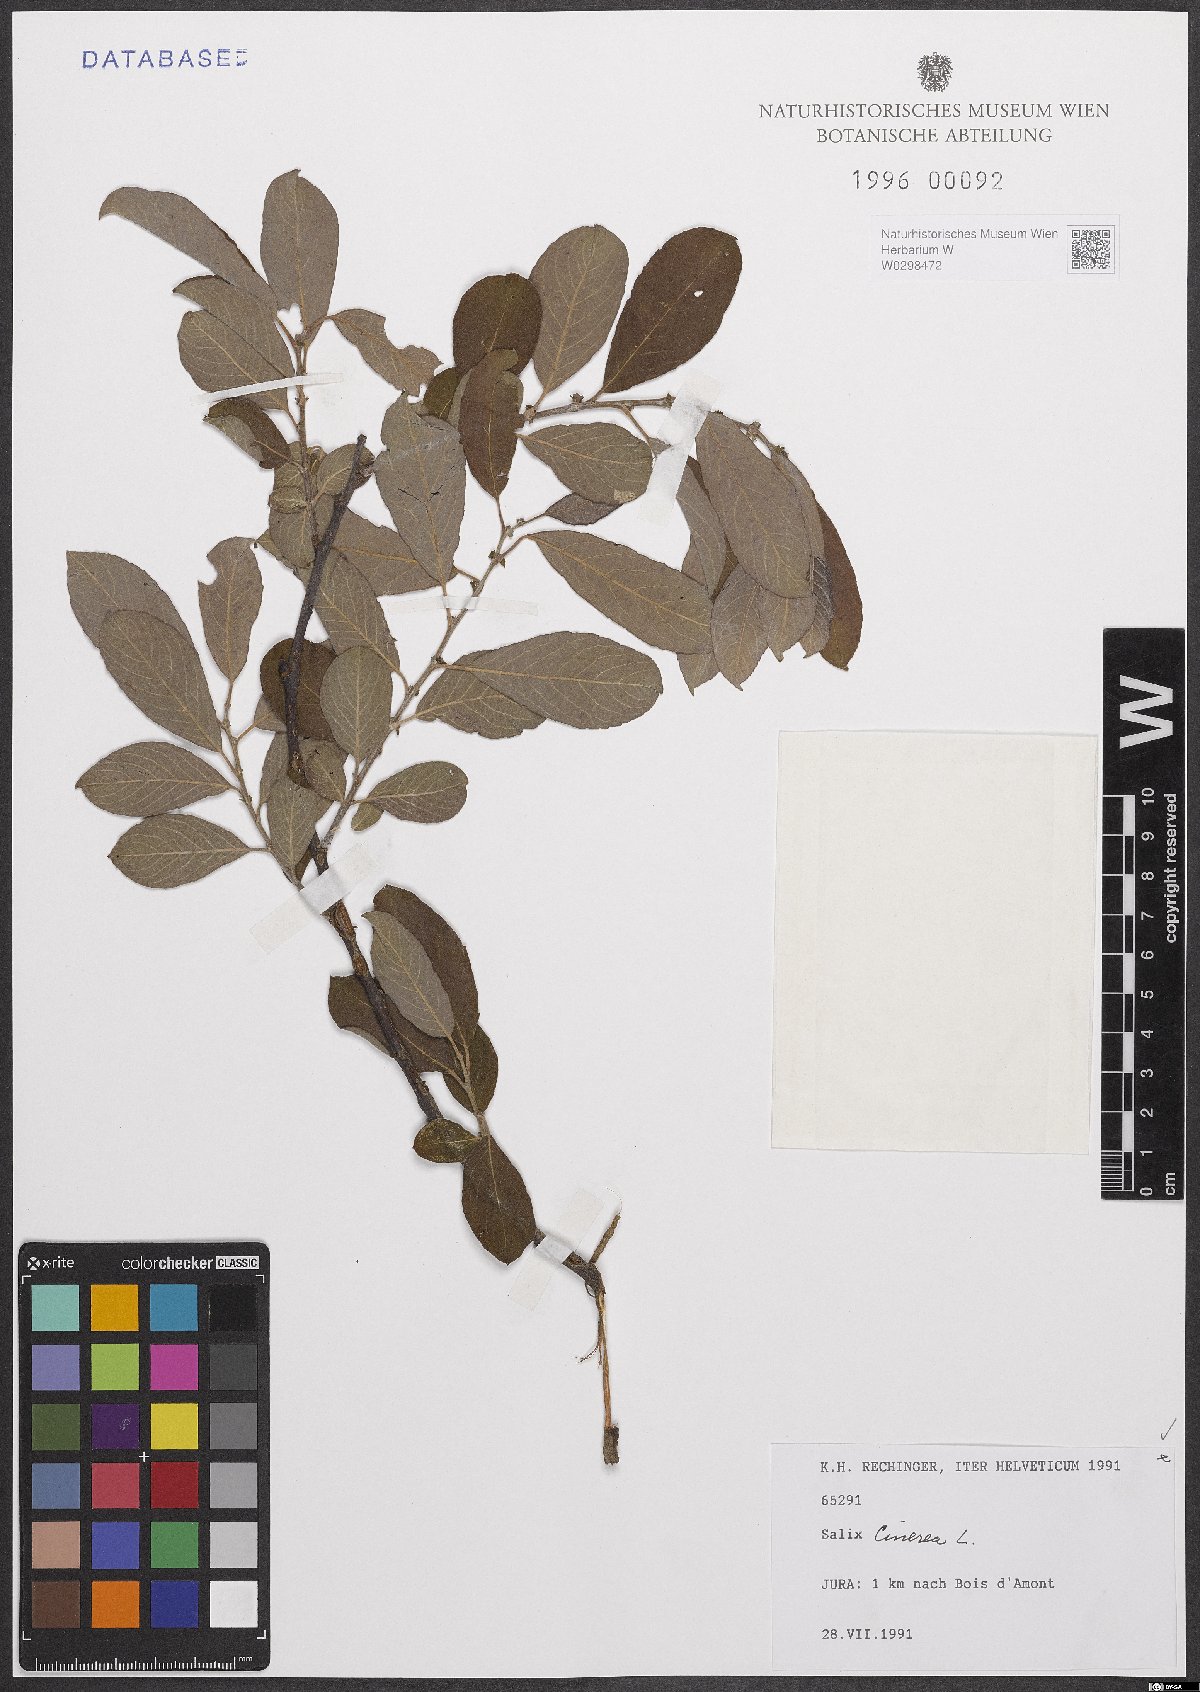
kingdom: Plantae
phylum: Tracheophyta
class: Magnoliopsida
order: Malpighiales
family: Salicaceae
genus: Salix
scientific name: Salix cinerea
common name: Common sallow
